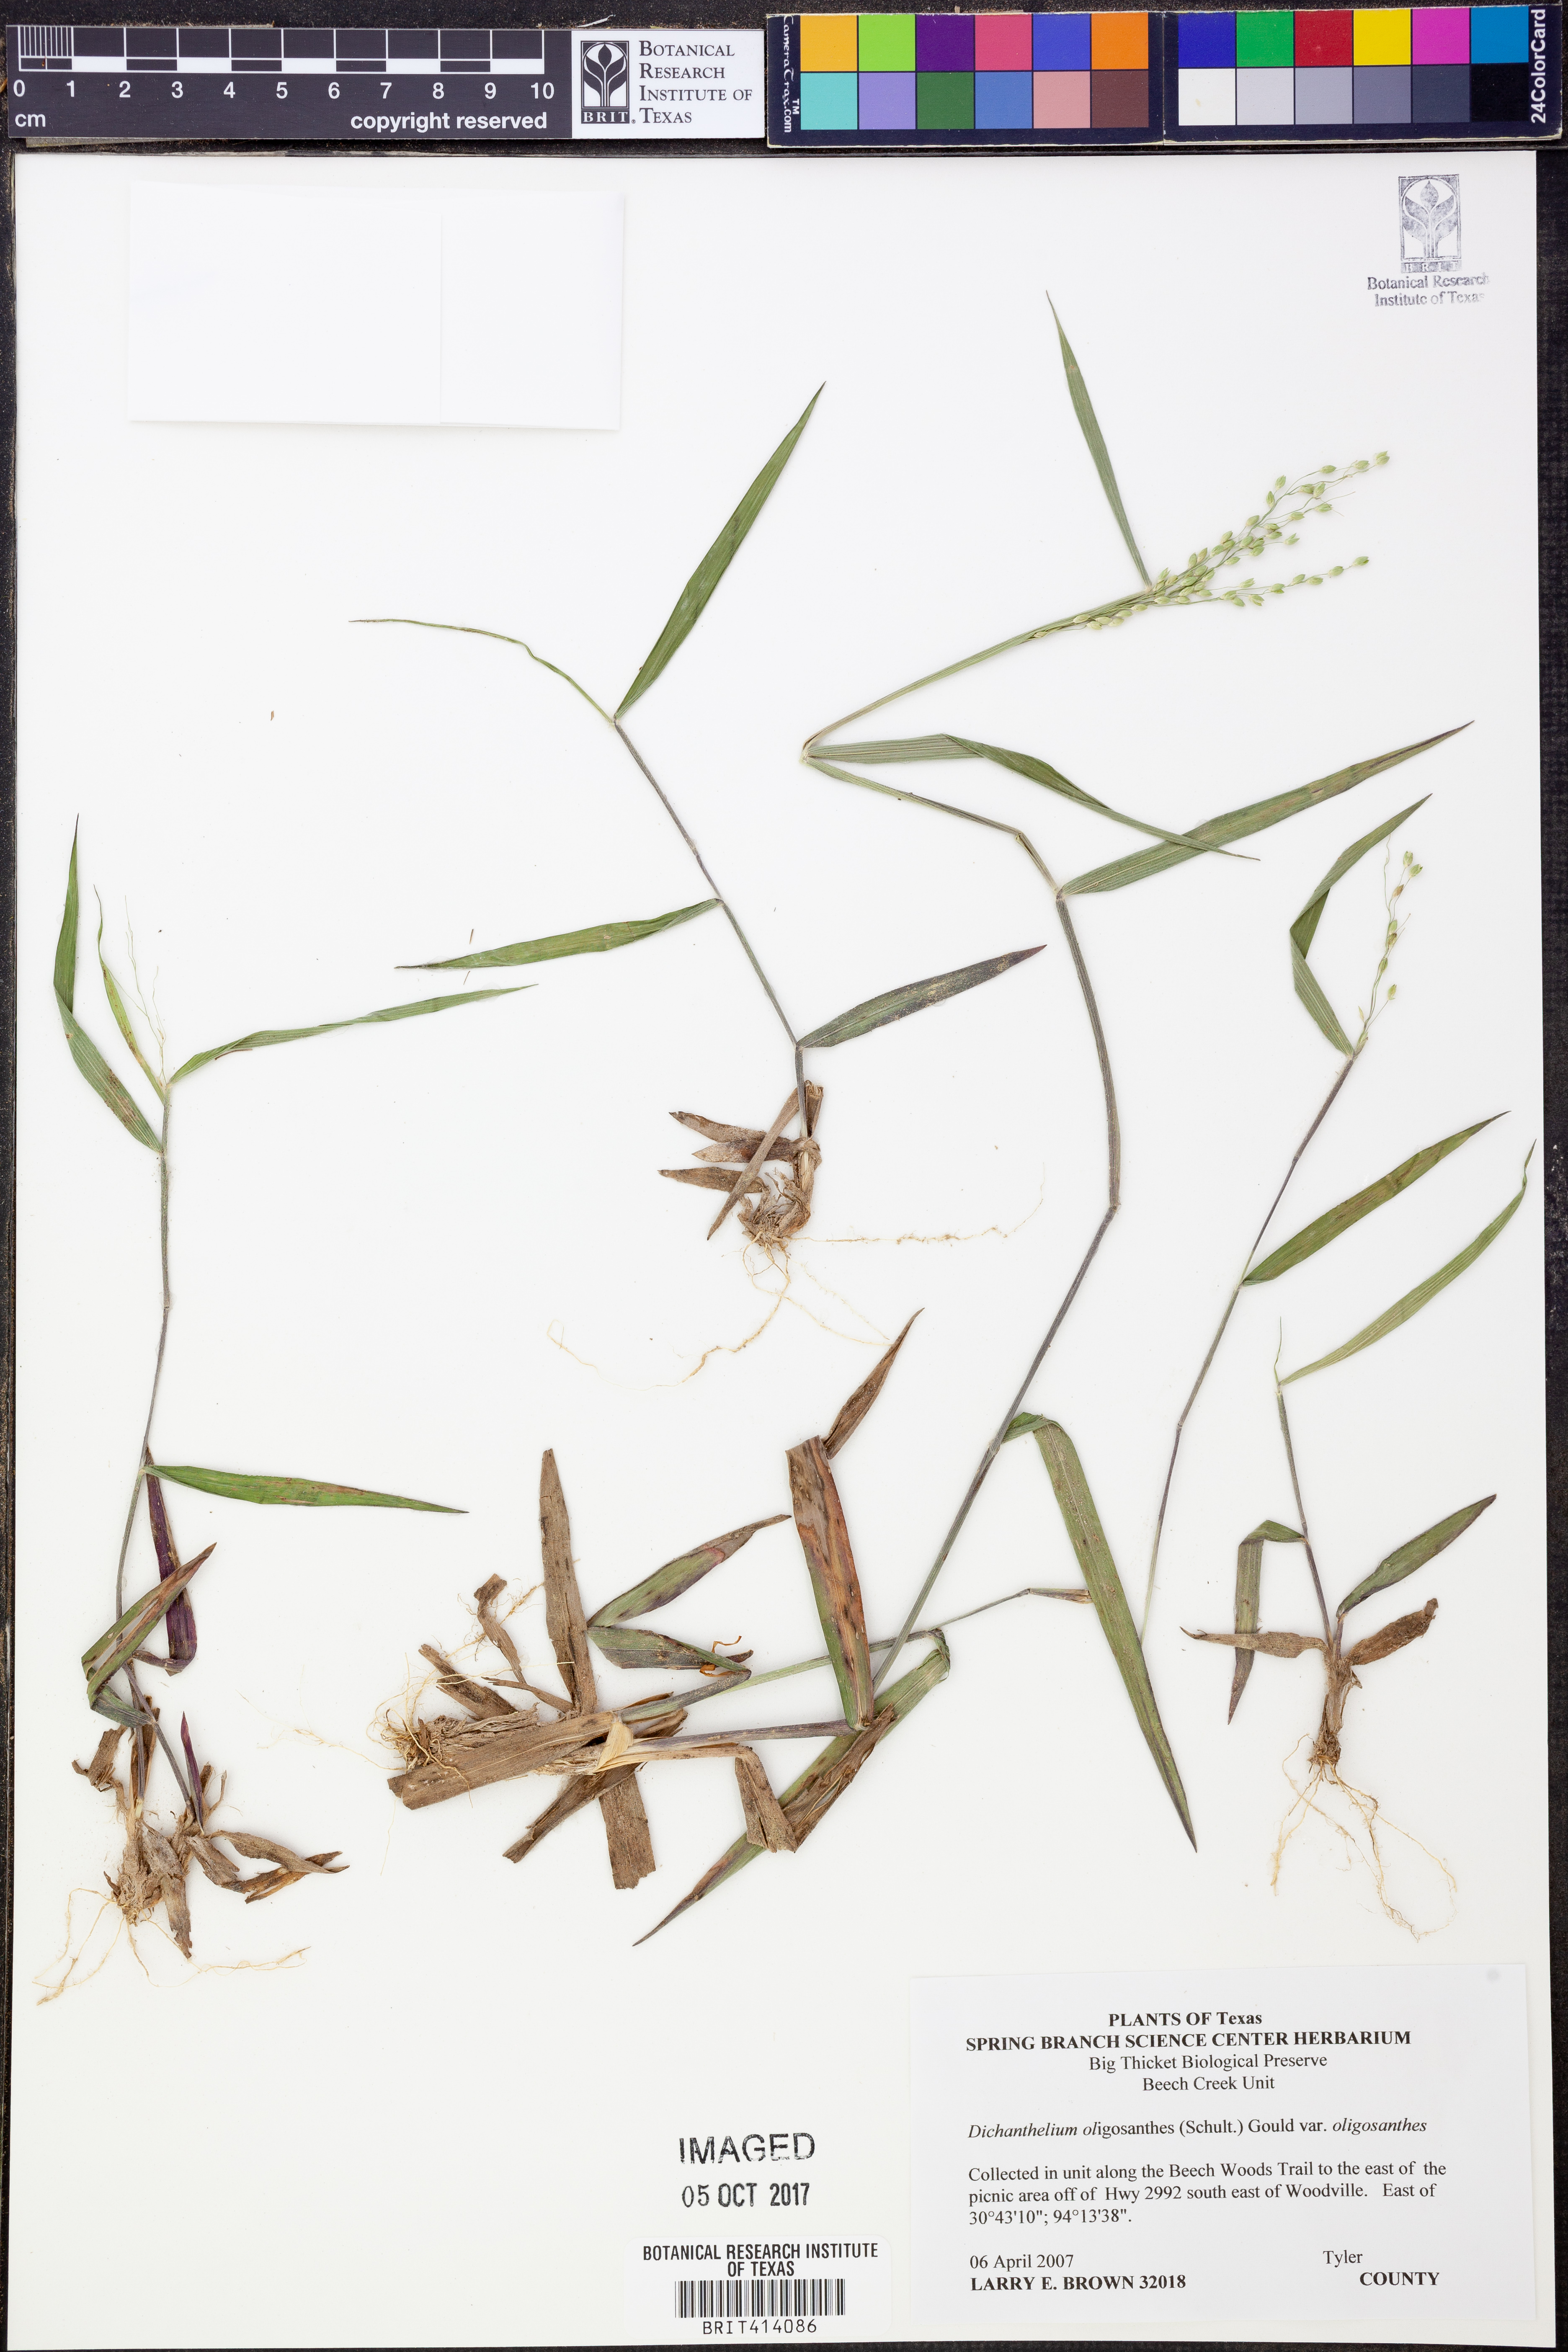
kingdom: Plantae
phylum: Tracheophyta
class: Liliopsida
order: Poales
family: Poaceae
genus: Dichanthelium
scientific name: Dichanthelium oligosanthes
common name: Few-anther obscuregrass
